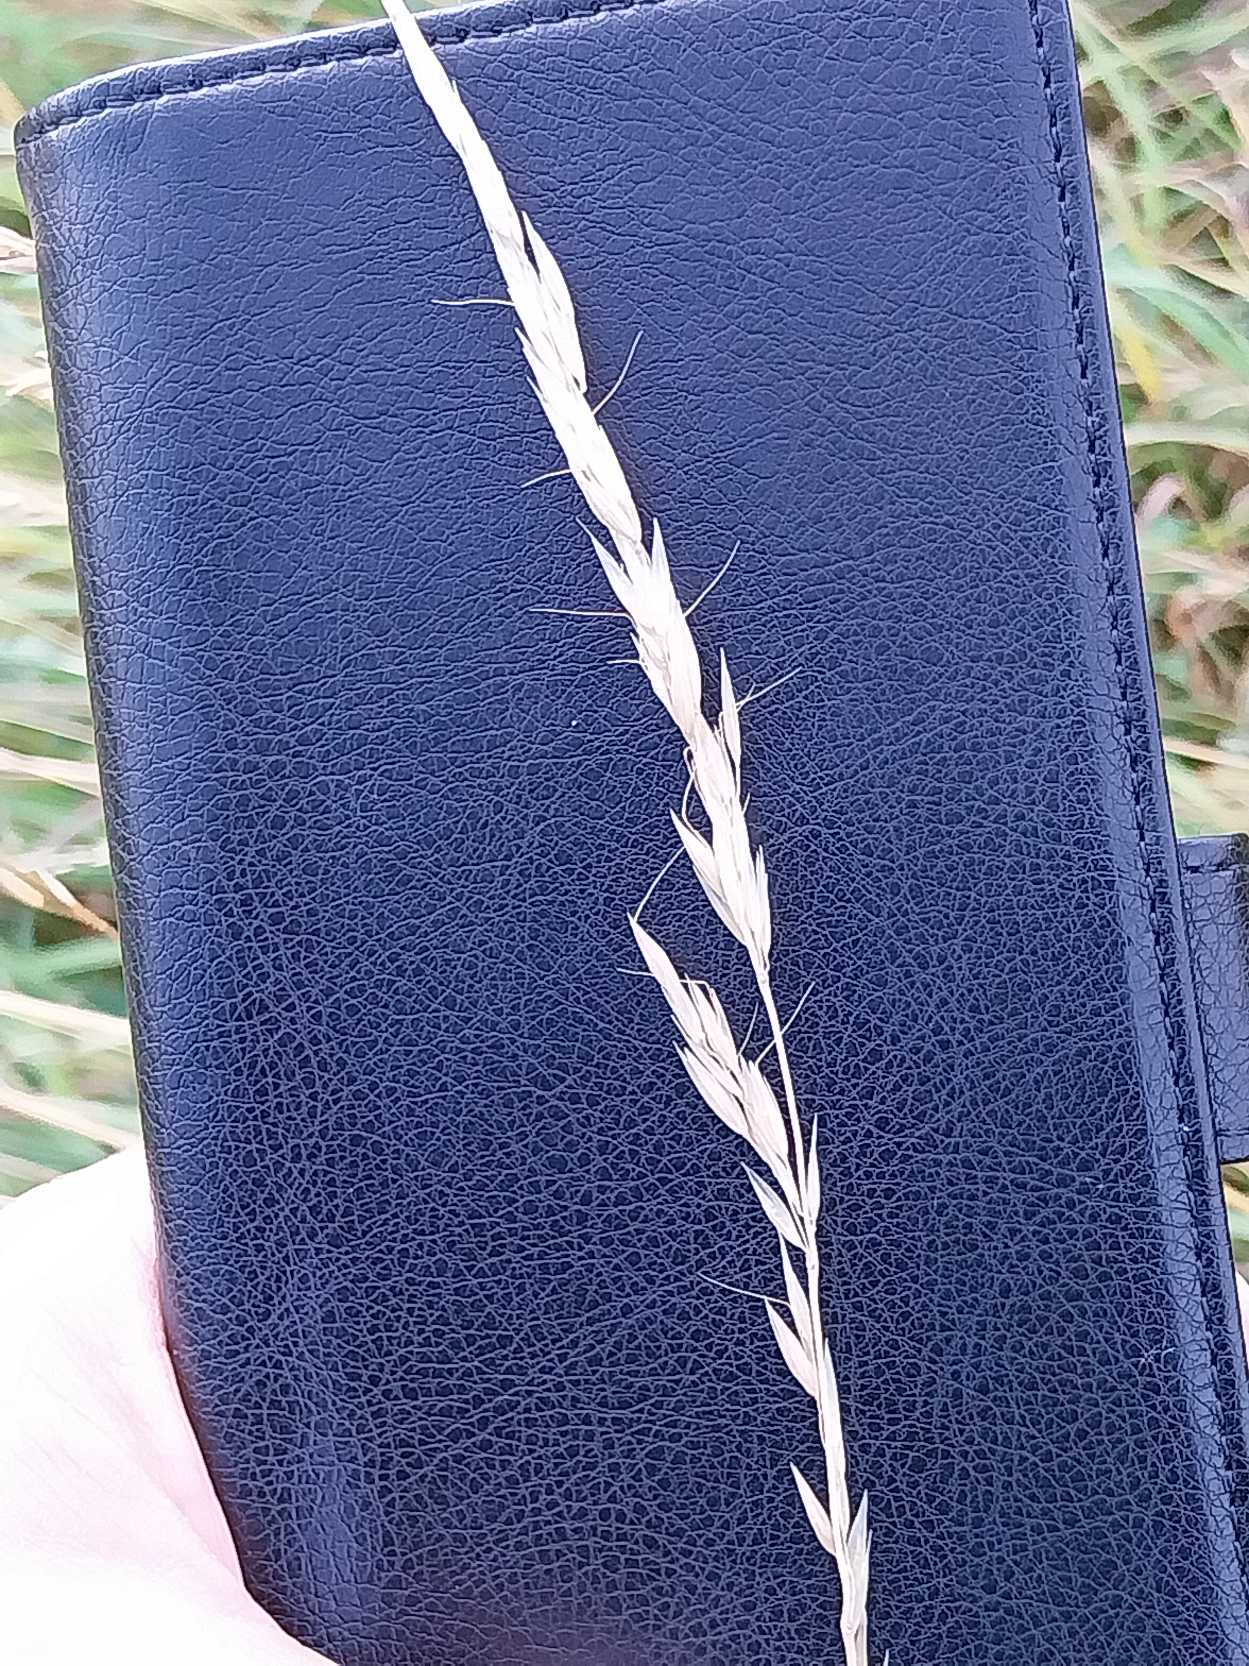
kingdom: Plantae
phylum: Tracheophyta
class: Liliopsida
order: Poales
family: Poaceae
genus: Arrhenatherum
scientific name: Arrhenatherum elatius
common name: Draphavre
